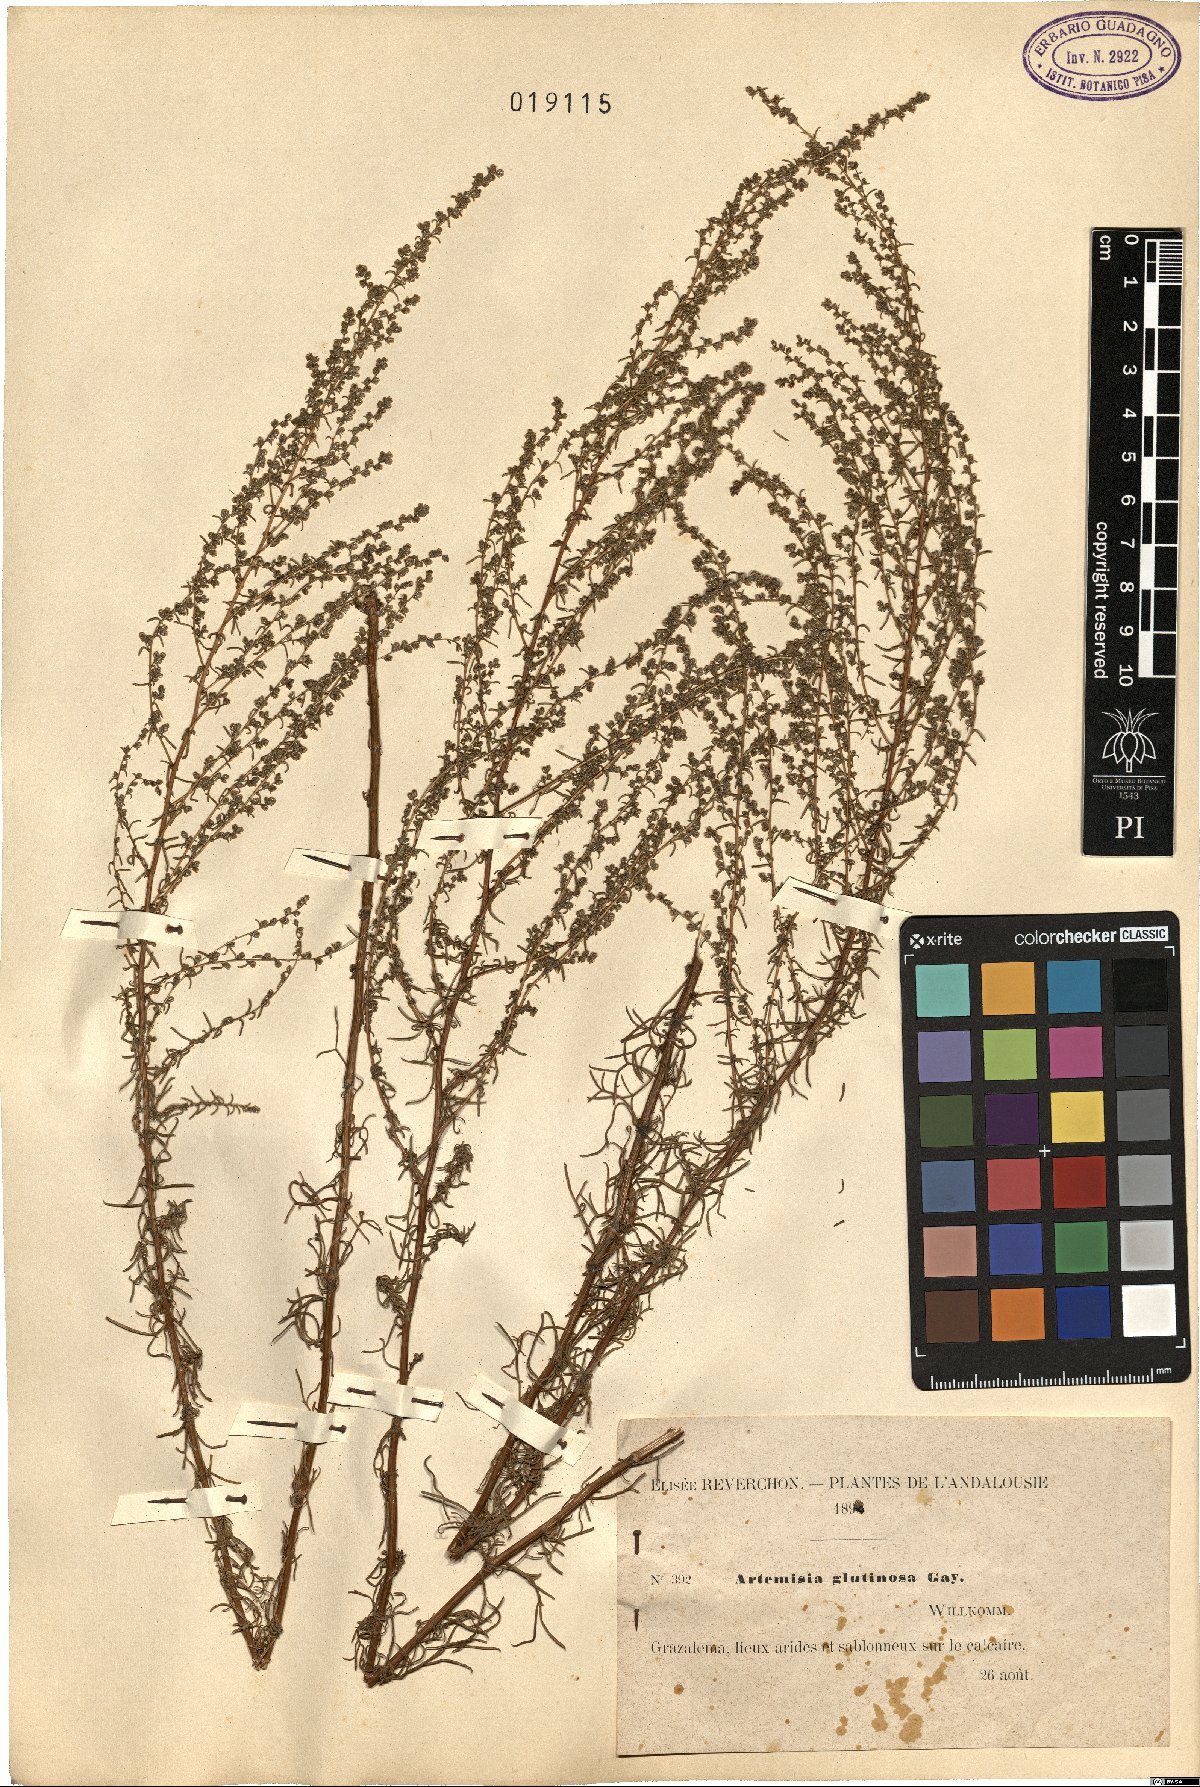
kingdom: Plantae
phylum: Tracheophyta
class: Magnoliopsida
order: Asterales
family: Asteraceae
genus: Artemisia
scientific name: Artemisia campestris
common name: Field wormwood
